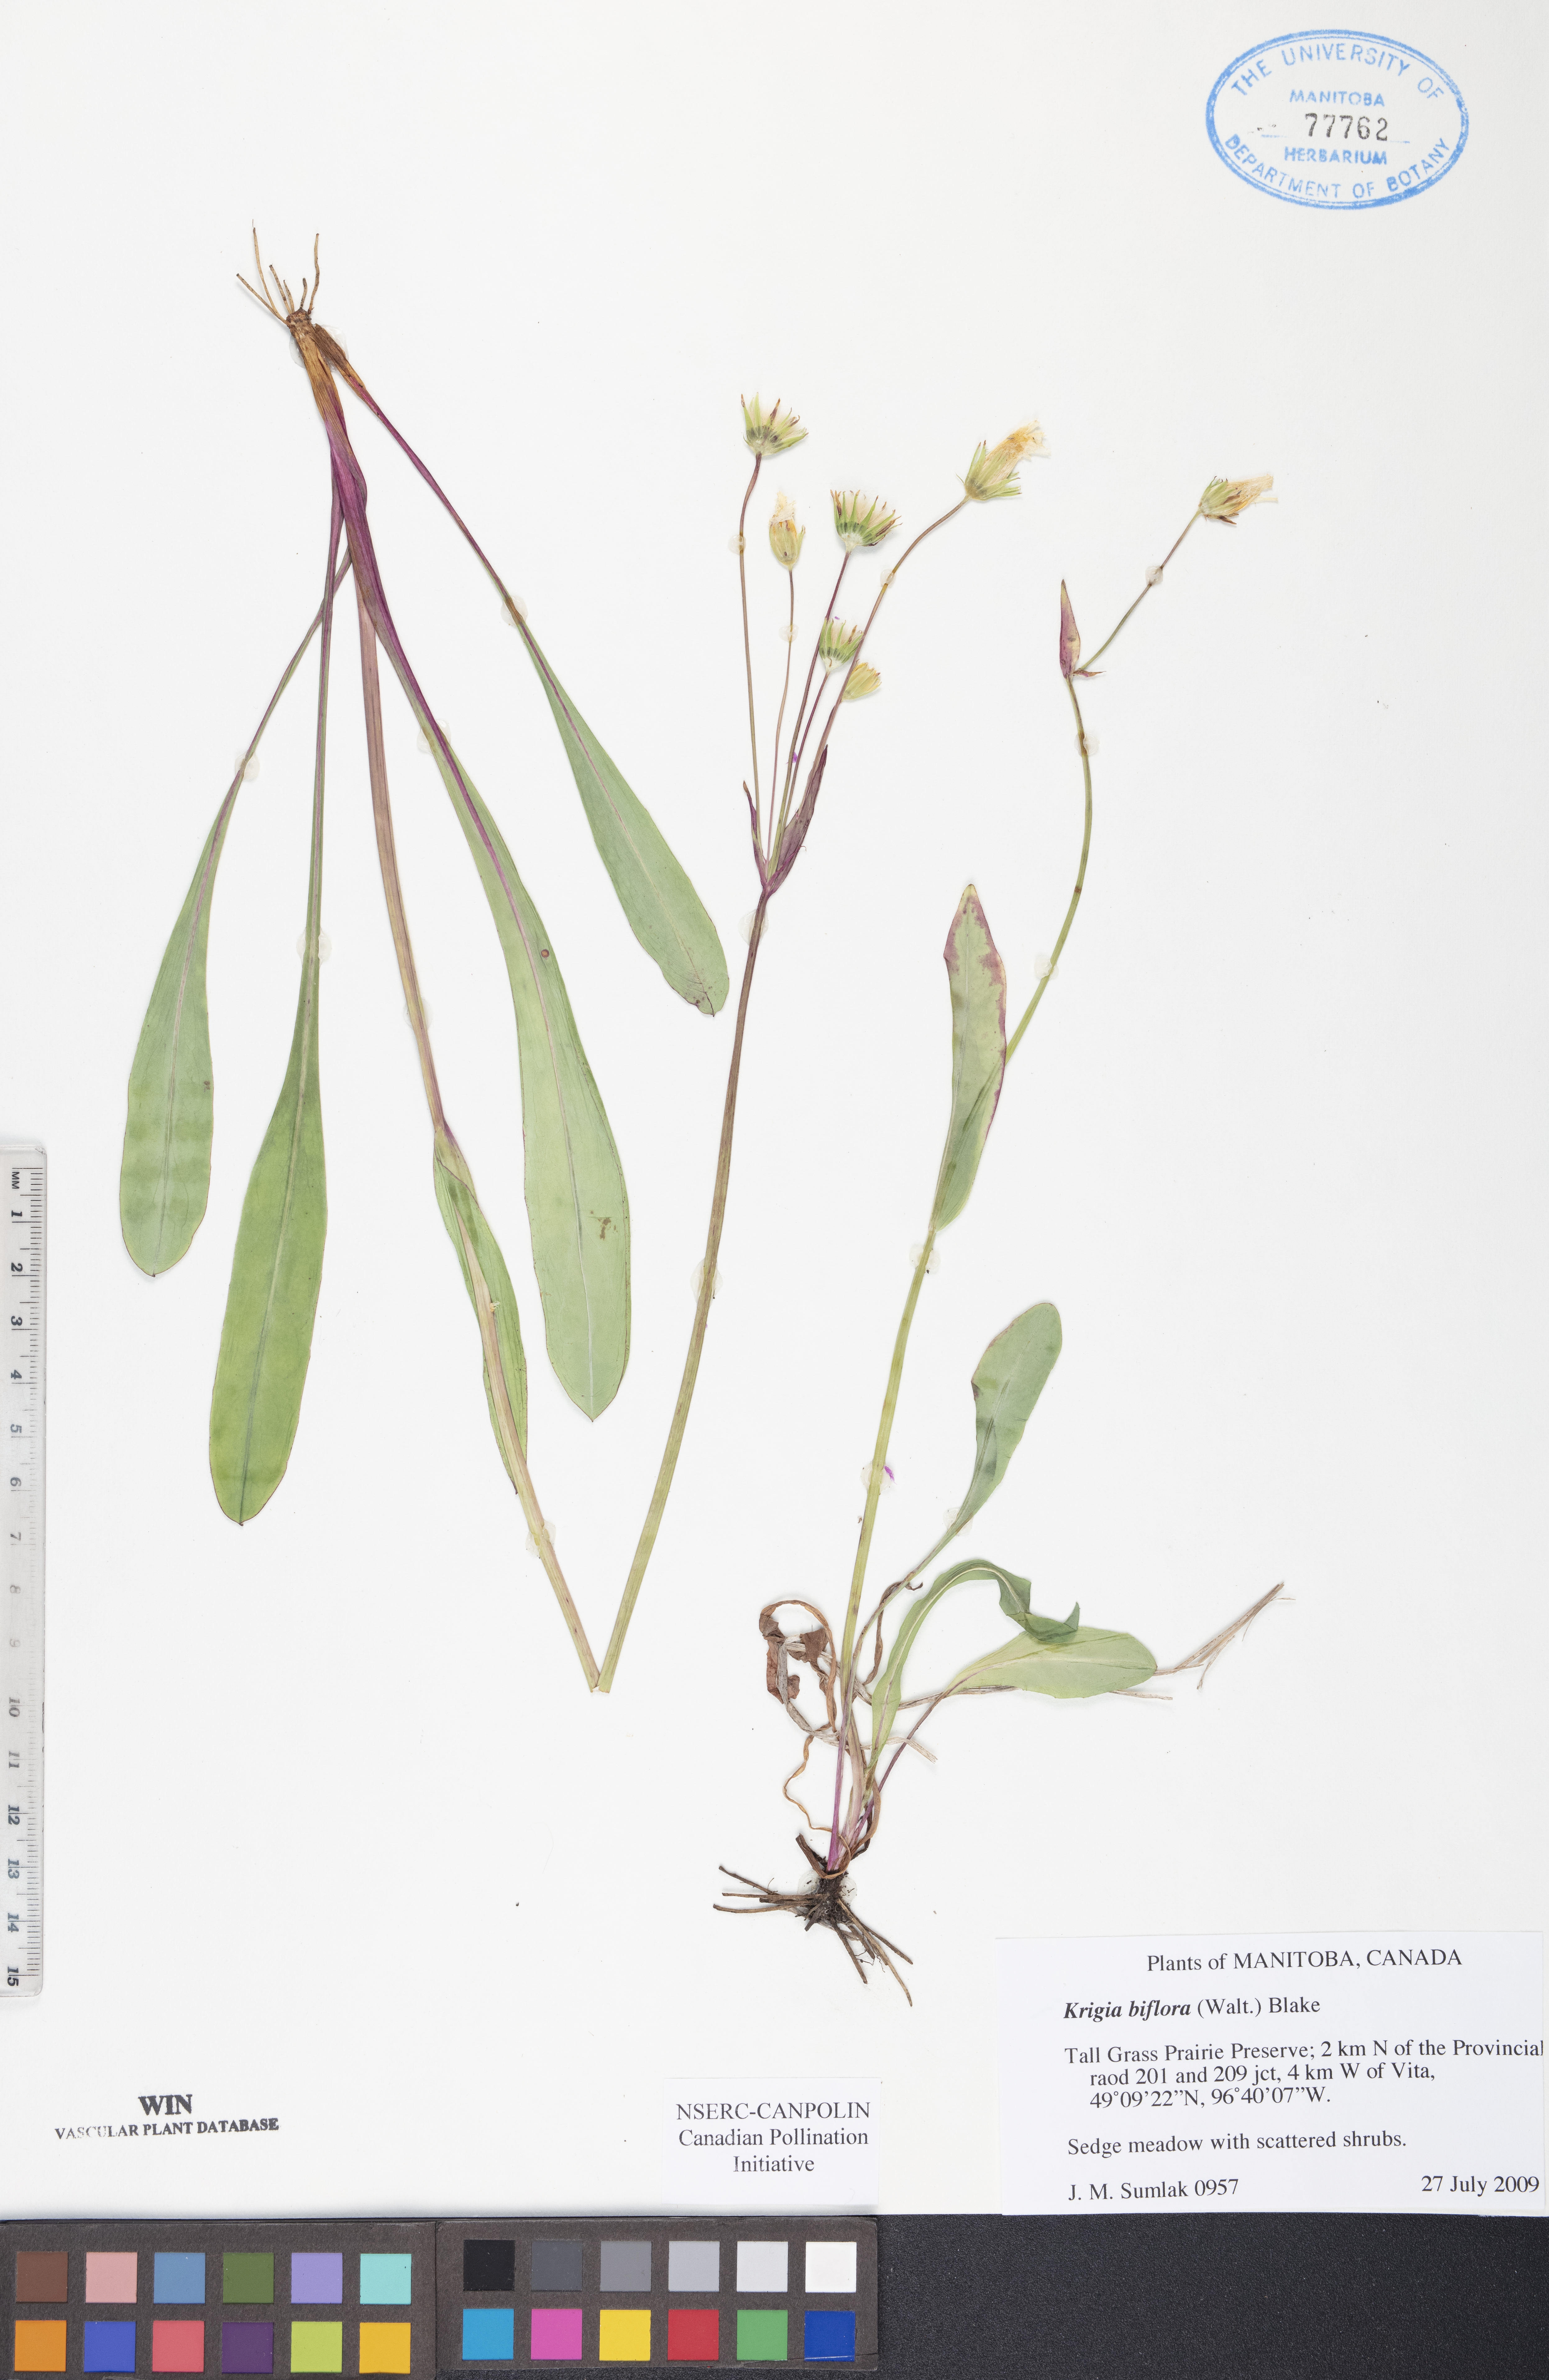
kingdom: Plantae
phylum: Tracheophyta
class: Magnoliopsida
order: Asterales
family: Asteraceae
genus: Krigia
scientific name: Krigia biflora
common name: Orange dwarf-dandelion
